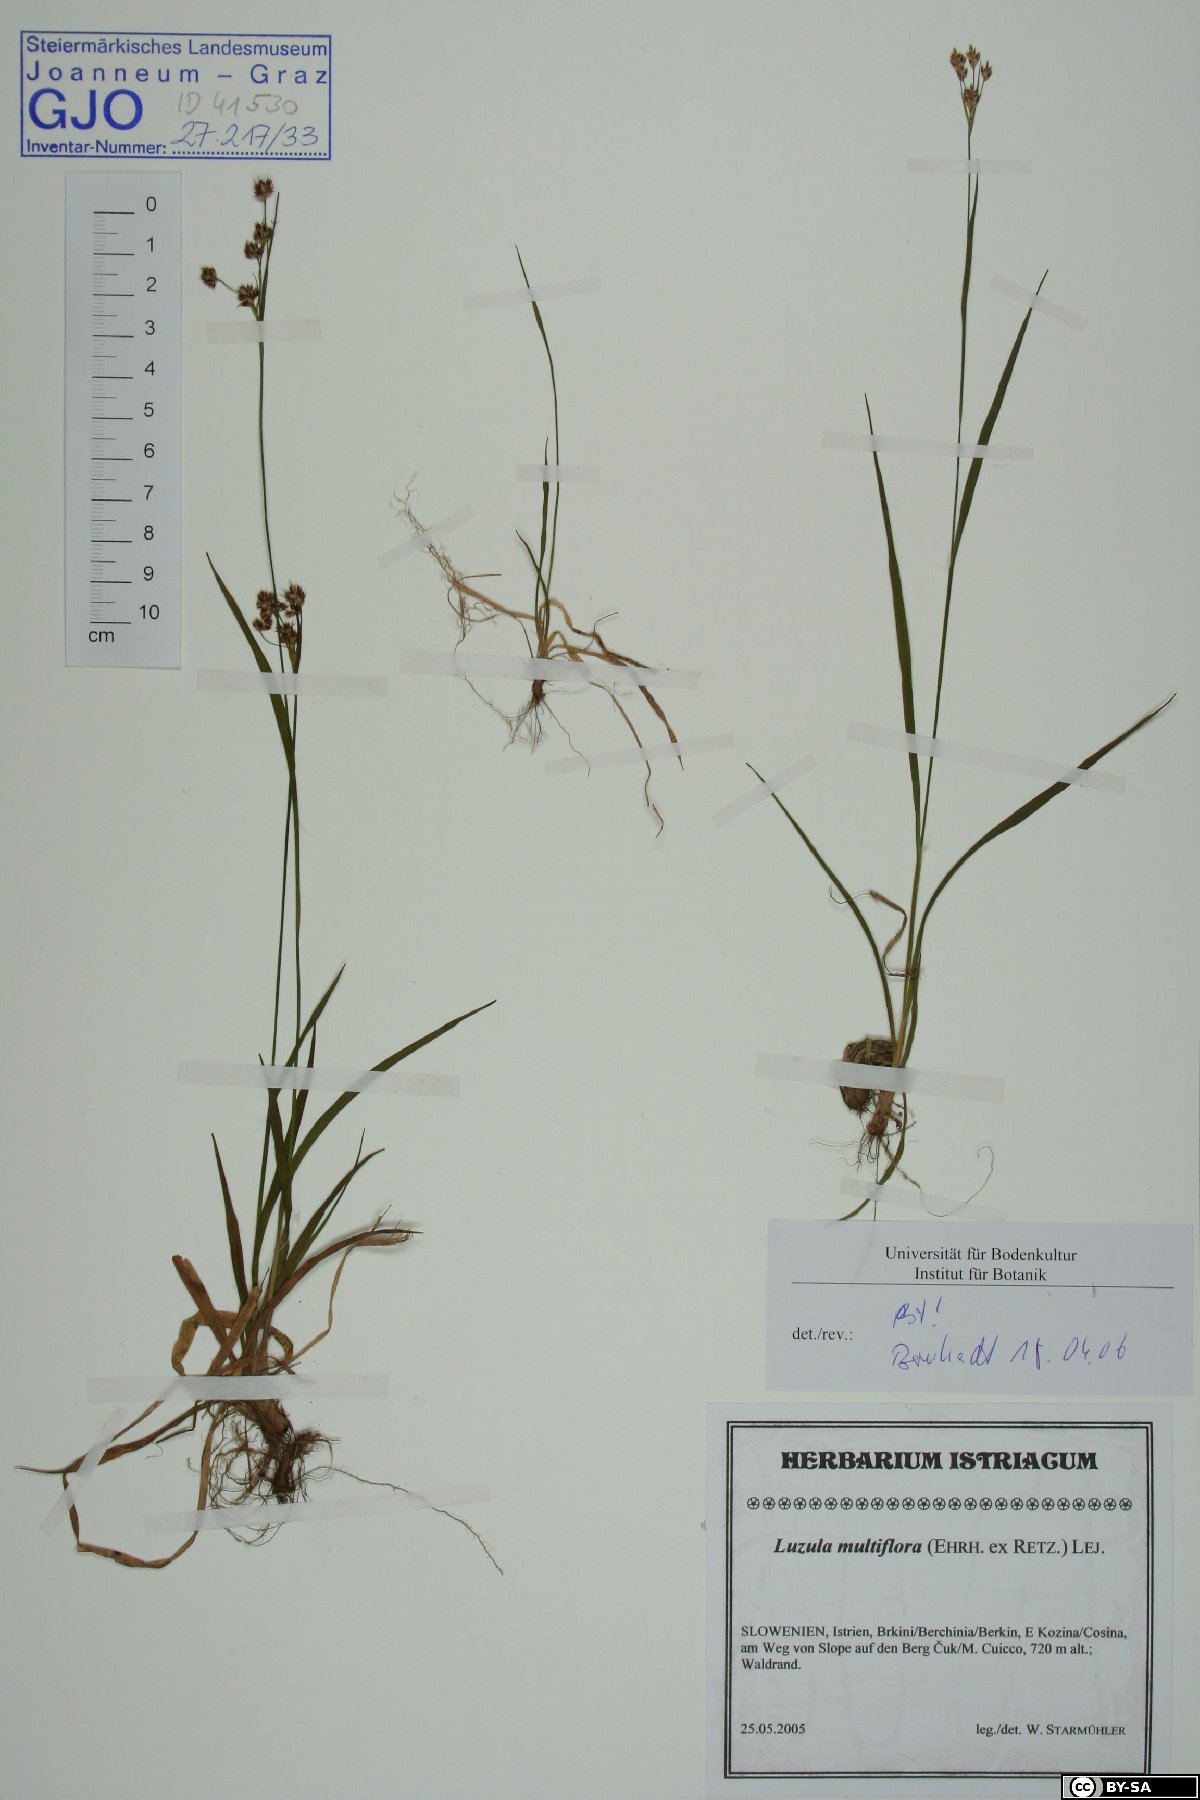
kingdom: Plantae
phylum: Tracheophyta
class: Liliopsida
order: Poales
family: Juncaceae
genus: Luzula
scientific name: Luzula multiflora
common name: Heath wood-rush
